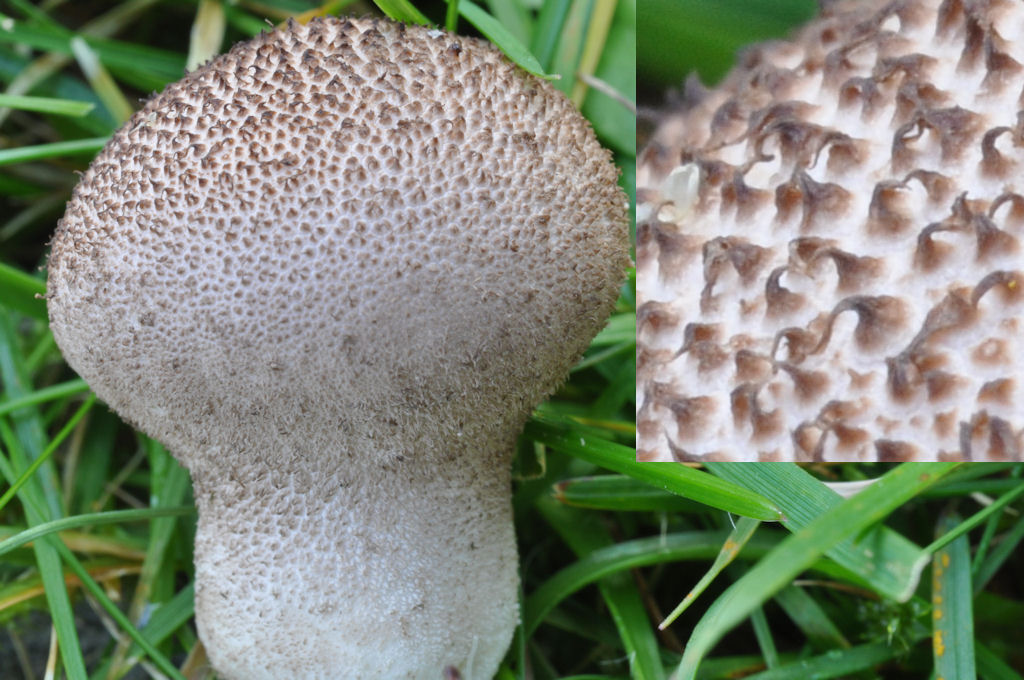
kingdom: Fungi
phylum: Basidiomycota
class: Agaricomycetes
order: Agaricales
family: Lycoperdaceae
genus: Lycoperdon
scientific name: Lycoperdon nigrescens
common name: sortagtig støvbold
